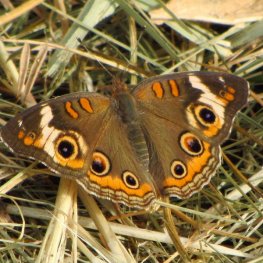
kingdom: Animalia
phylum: Arthropoda
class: Insecta
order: Lepidoptera
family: Nymphalidae
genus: Junonia
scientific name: Junonia coenia
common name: Common Buckeye
